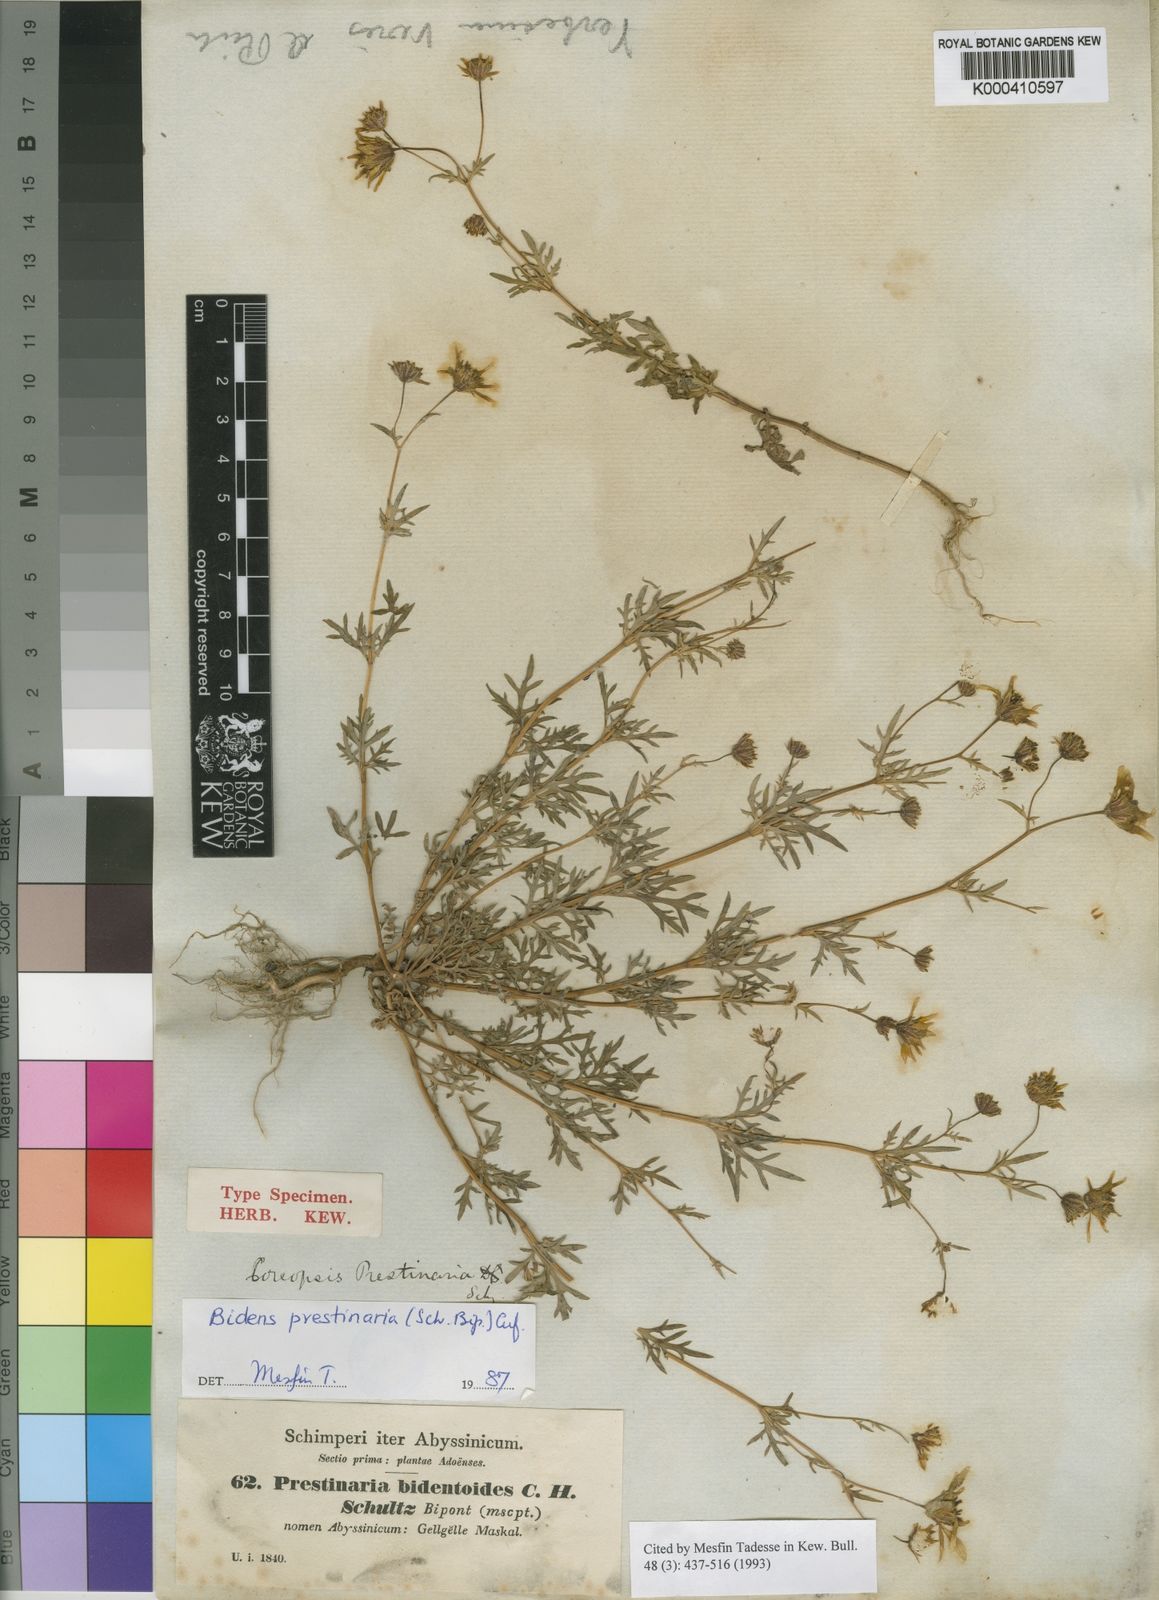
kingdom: Plantae
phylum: Tracheophyta
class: Magnoliopsida
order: Asterales
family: Asteraceae
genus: Bidens
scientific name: Bidens prestinaria
